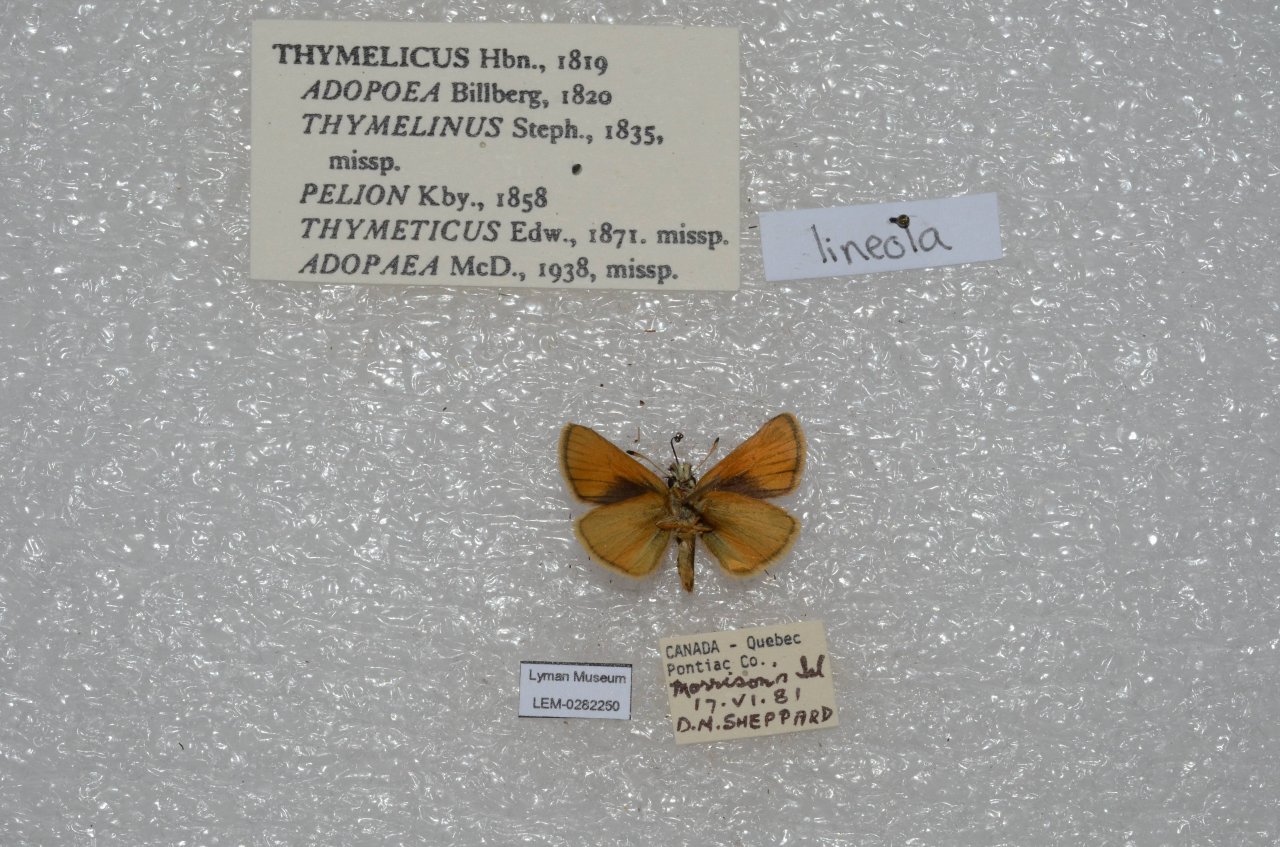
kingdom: Animalia
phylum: Arthropoda
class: Insecta
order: Lepidoptera
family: Hesperiidae
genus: Thymelicus
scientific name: Thymelicus lineola
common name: European Skipper
